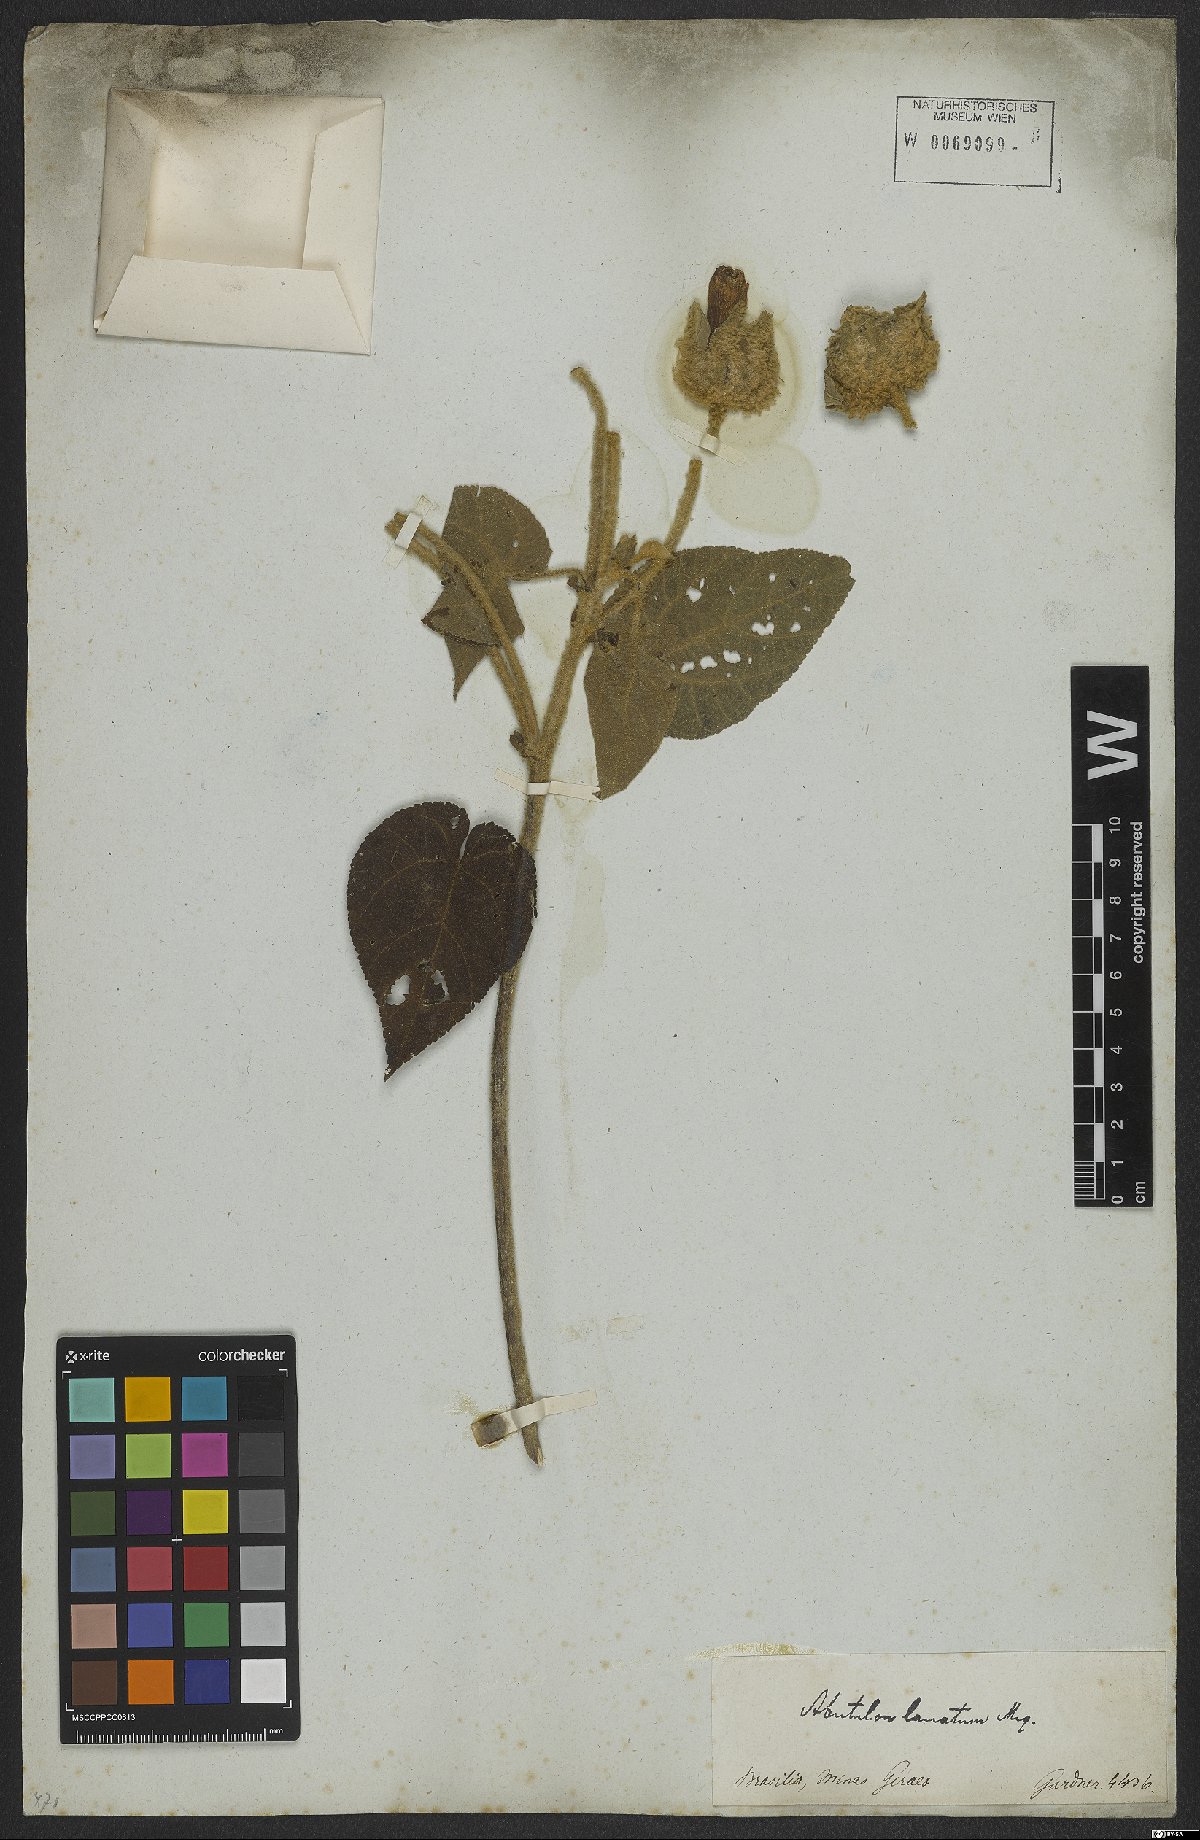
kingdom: Plantae
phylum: Tracheophyta
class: Magnoliopsida
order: Malvales
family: Malvaceae
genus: Bakeridesia
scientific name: Bakeridesia ferruginea
